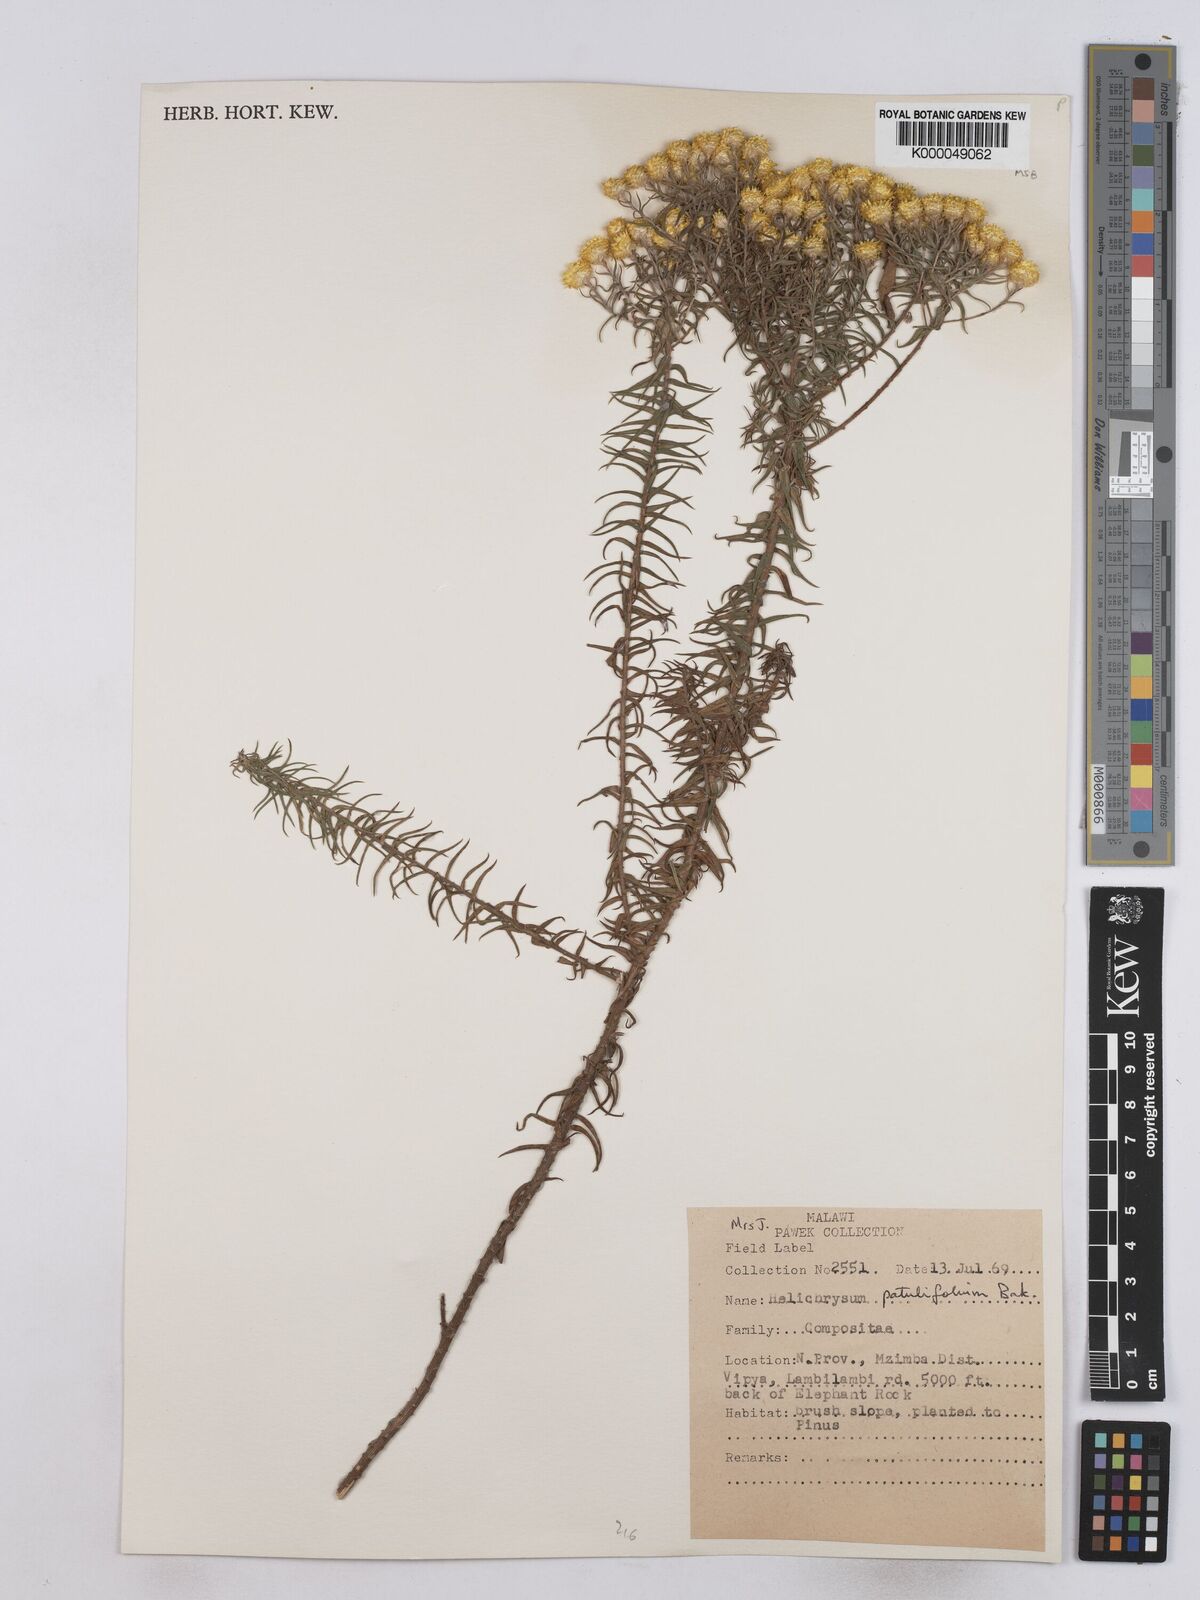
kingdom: Plantae
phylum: Tracheophyta
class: Magnoliopsida
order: Asterales
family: Asteraceae
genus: Helichrysum
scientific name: Helichrysum patulifolium
